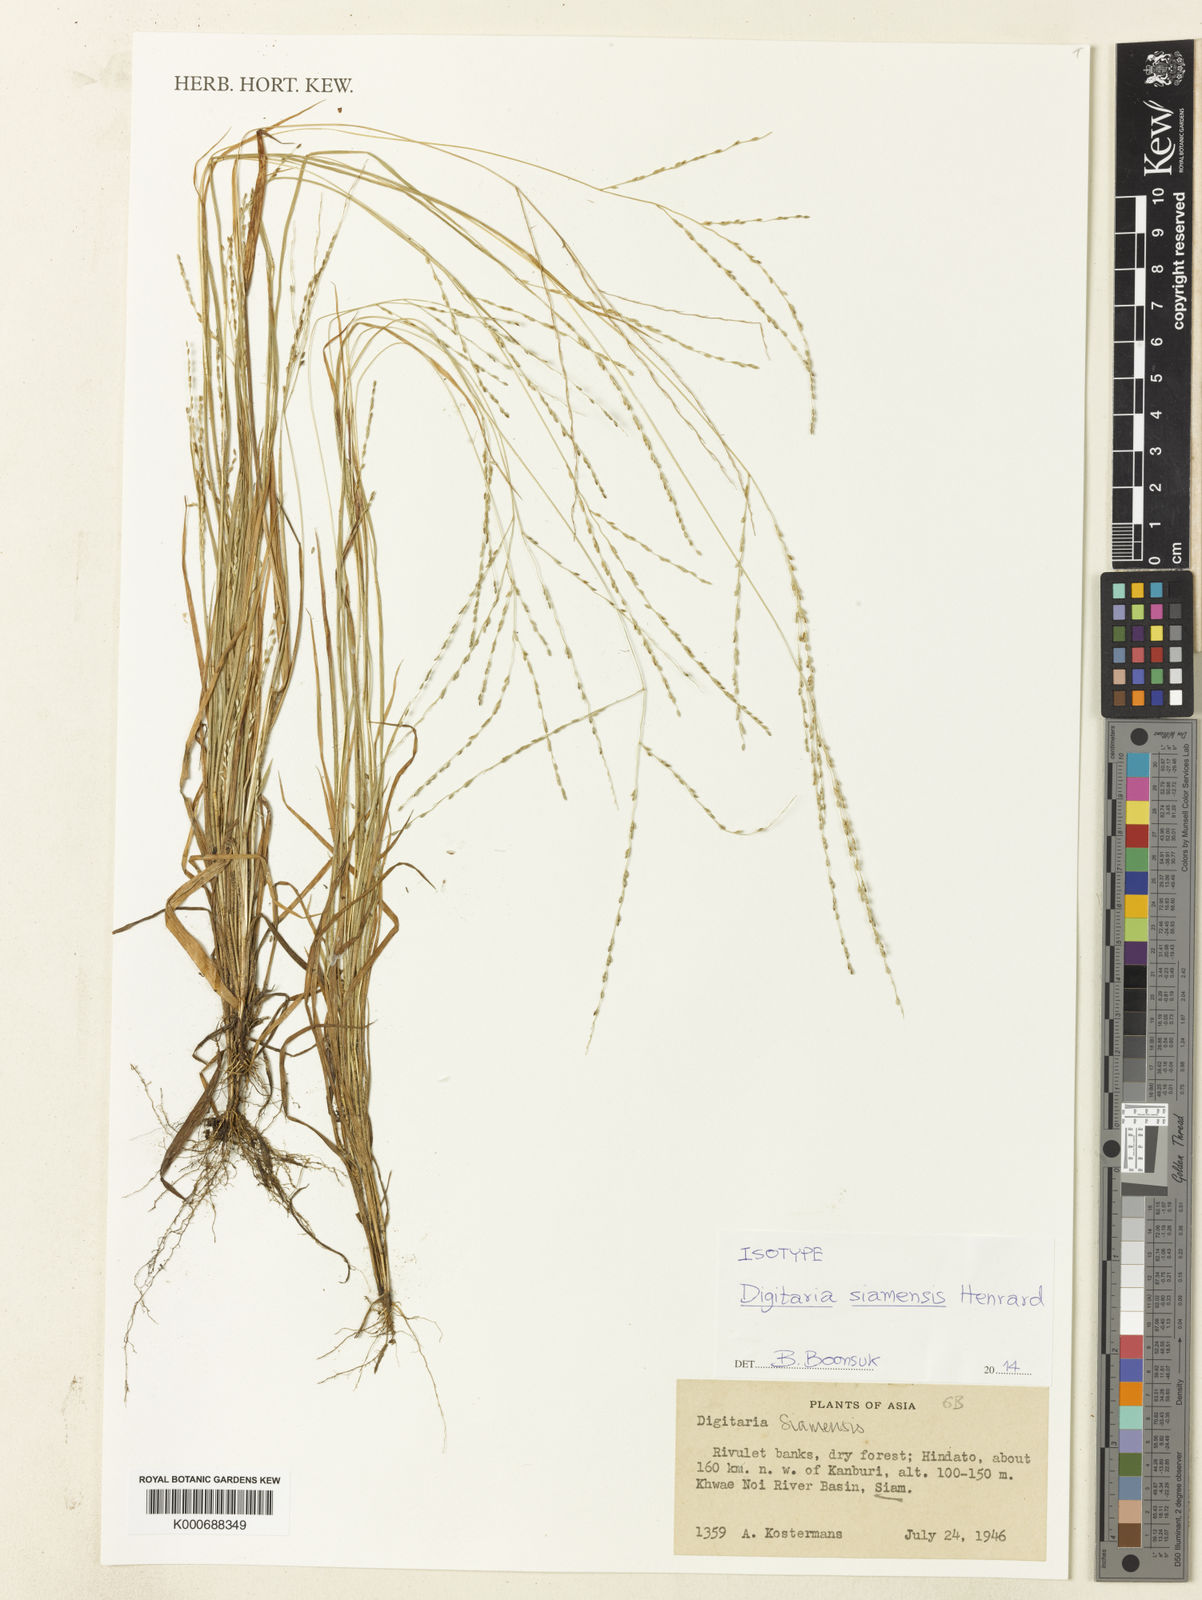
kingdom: Plantae
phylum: Tracheophyta
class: Liliopsida
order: Poales
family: Poaceae
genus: Digitaria
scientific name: Digitaria sparsifructus
